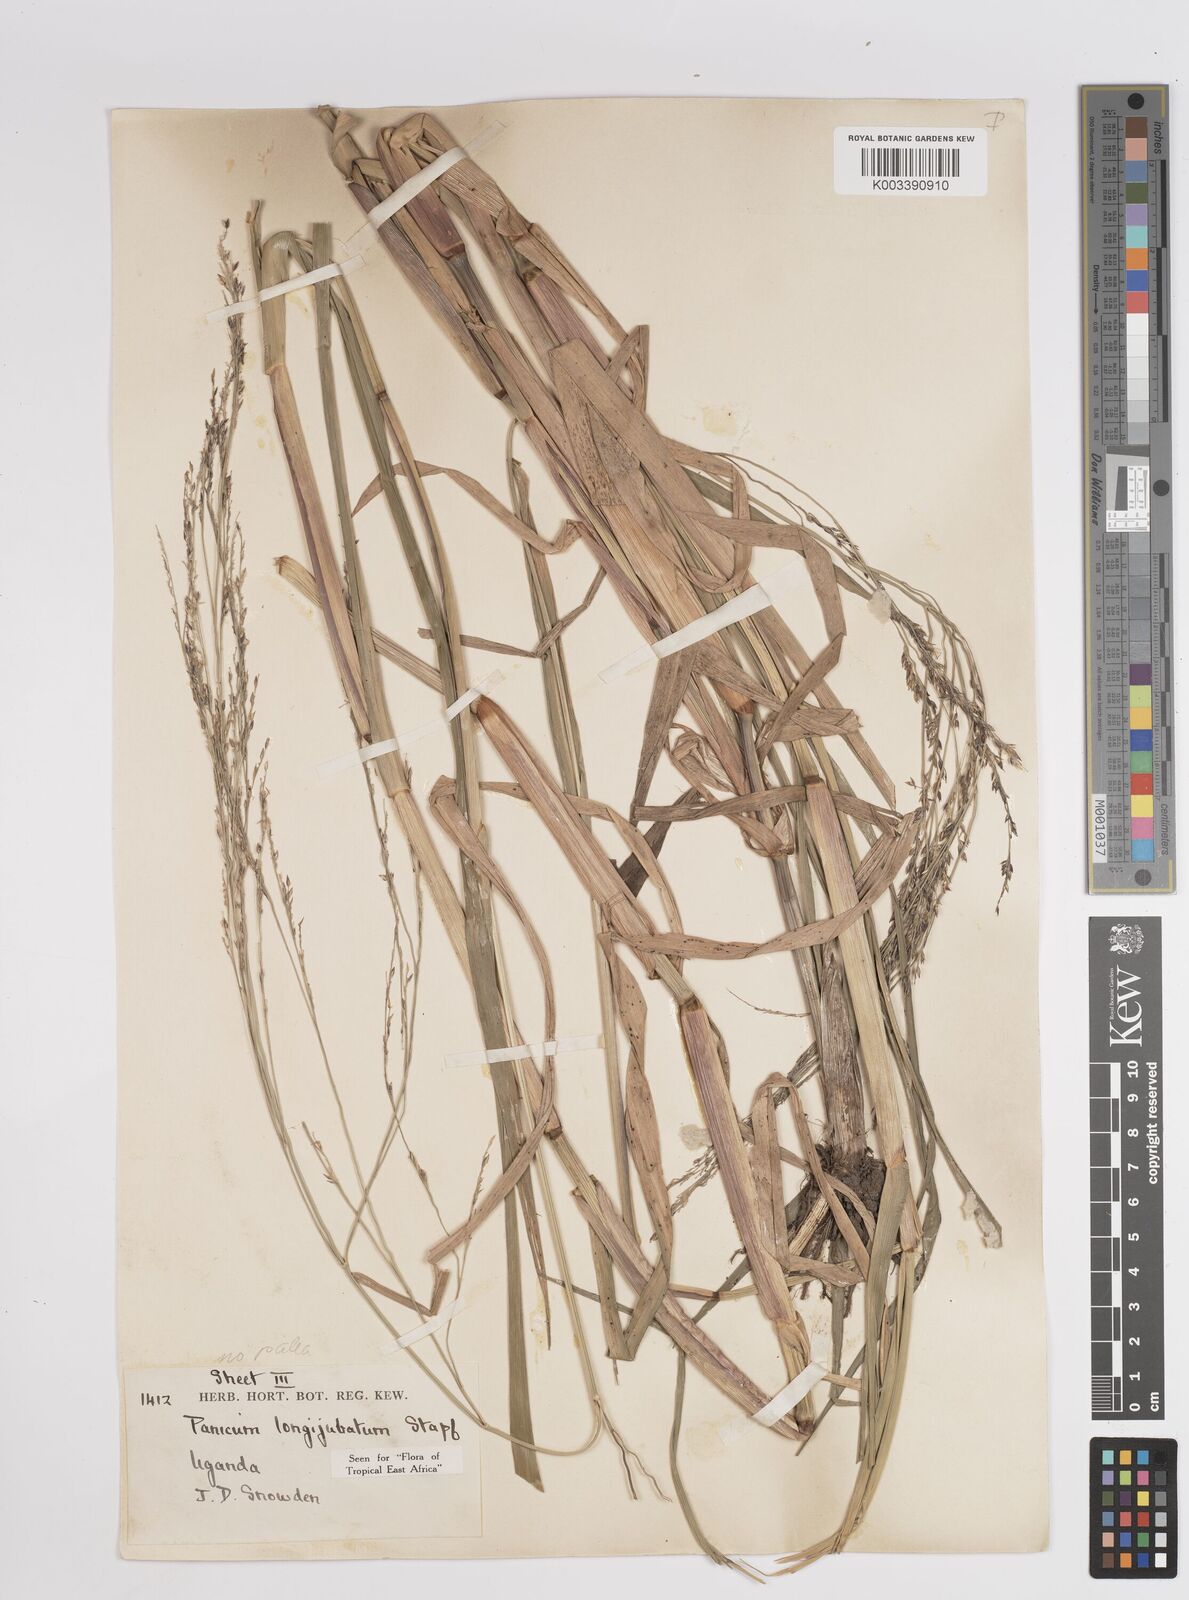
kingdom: Plantae
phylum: Tracheophyta
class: Liliopsida
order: Poales
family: Poaceae
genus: Panicum
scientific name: Panicum subalbidum
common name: Elbow buffalo grass
